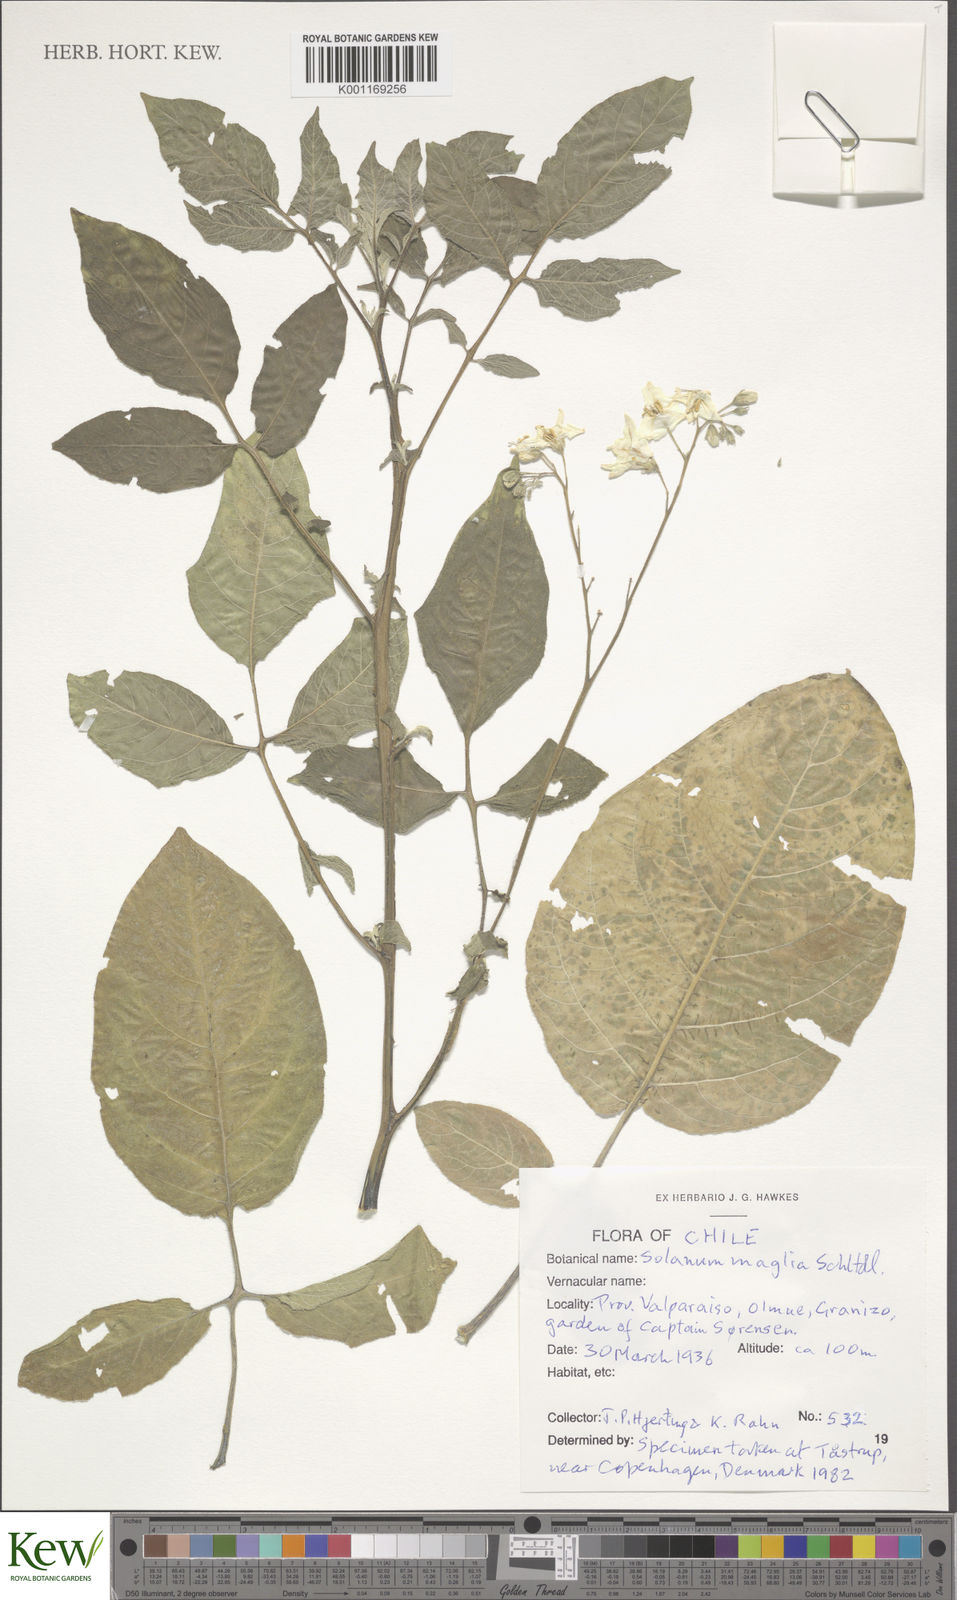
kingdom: Plantae
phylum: Tracheophyta
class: Magnoliopsida
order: Solanales
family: Solanaceae
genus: Solanum
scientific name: Solanum maglia
